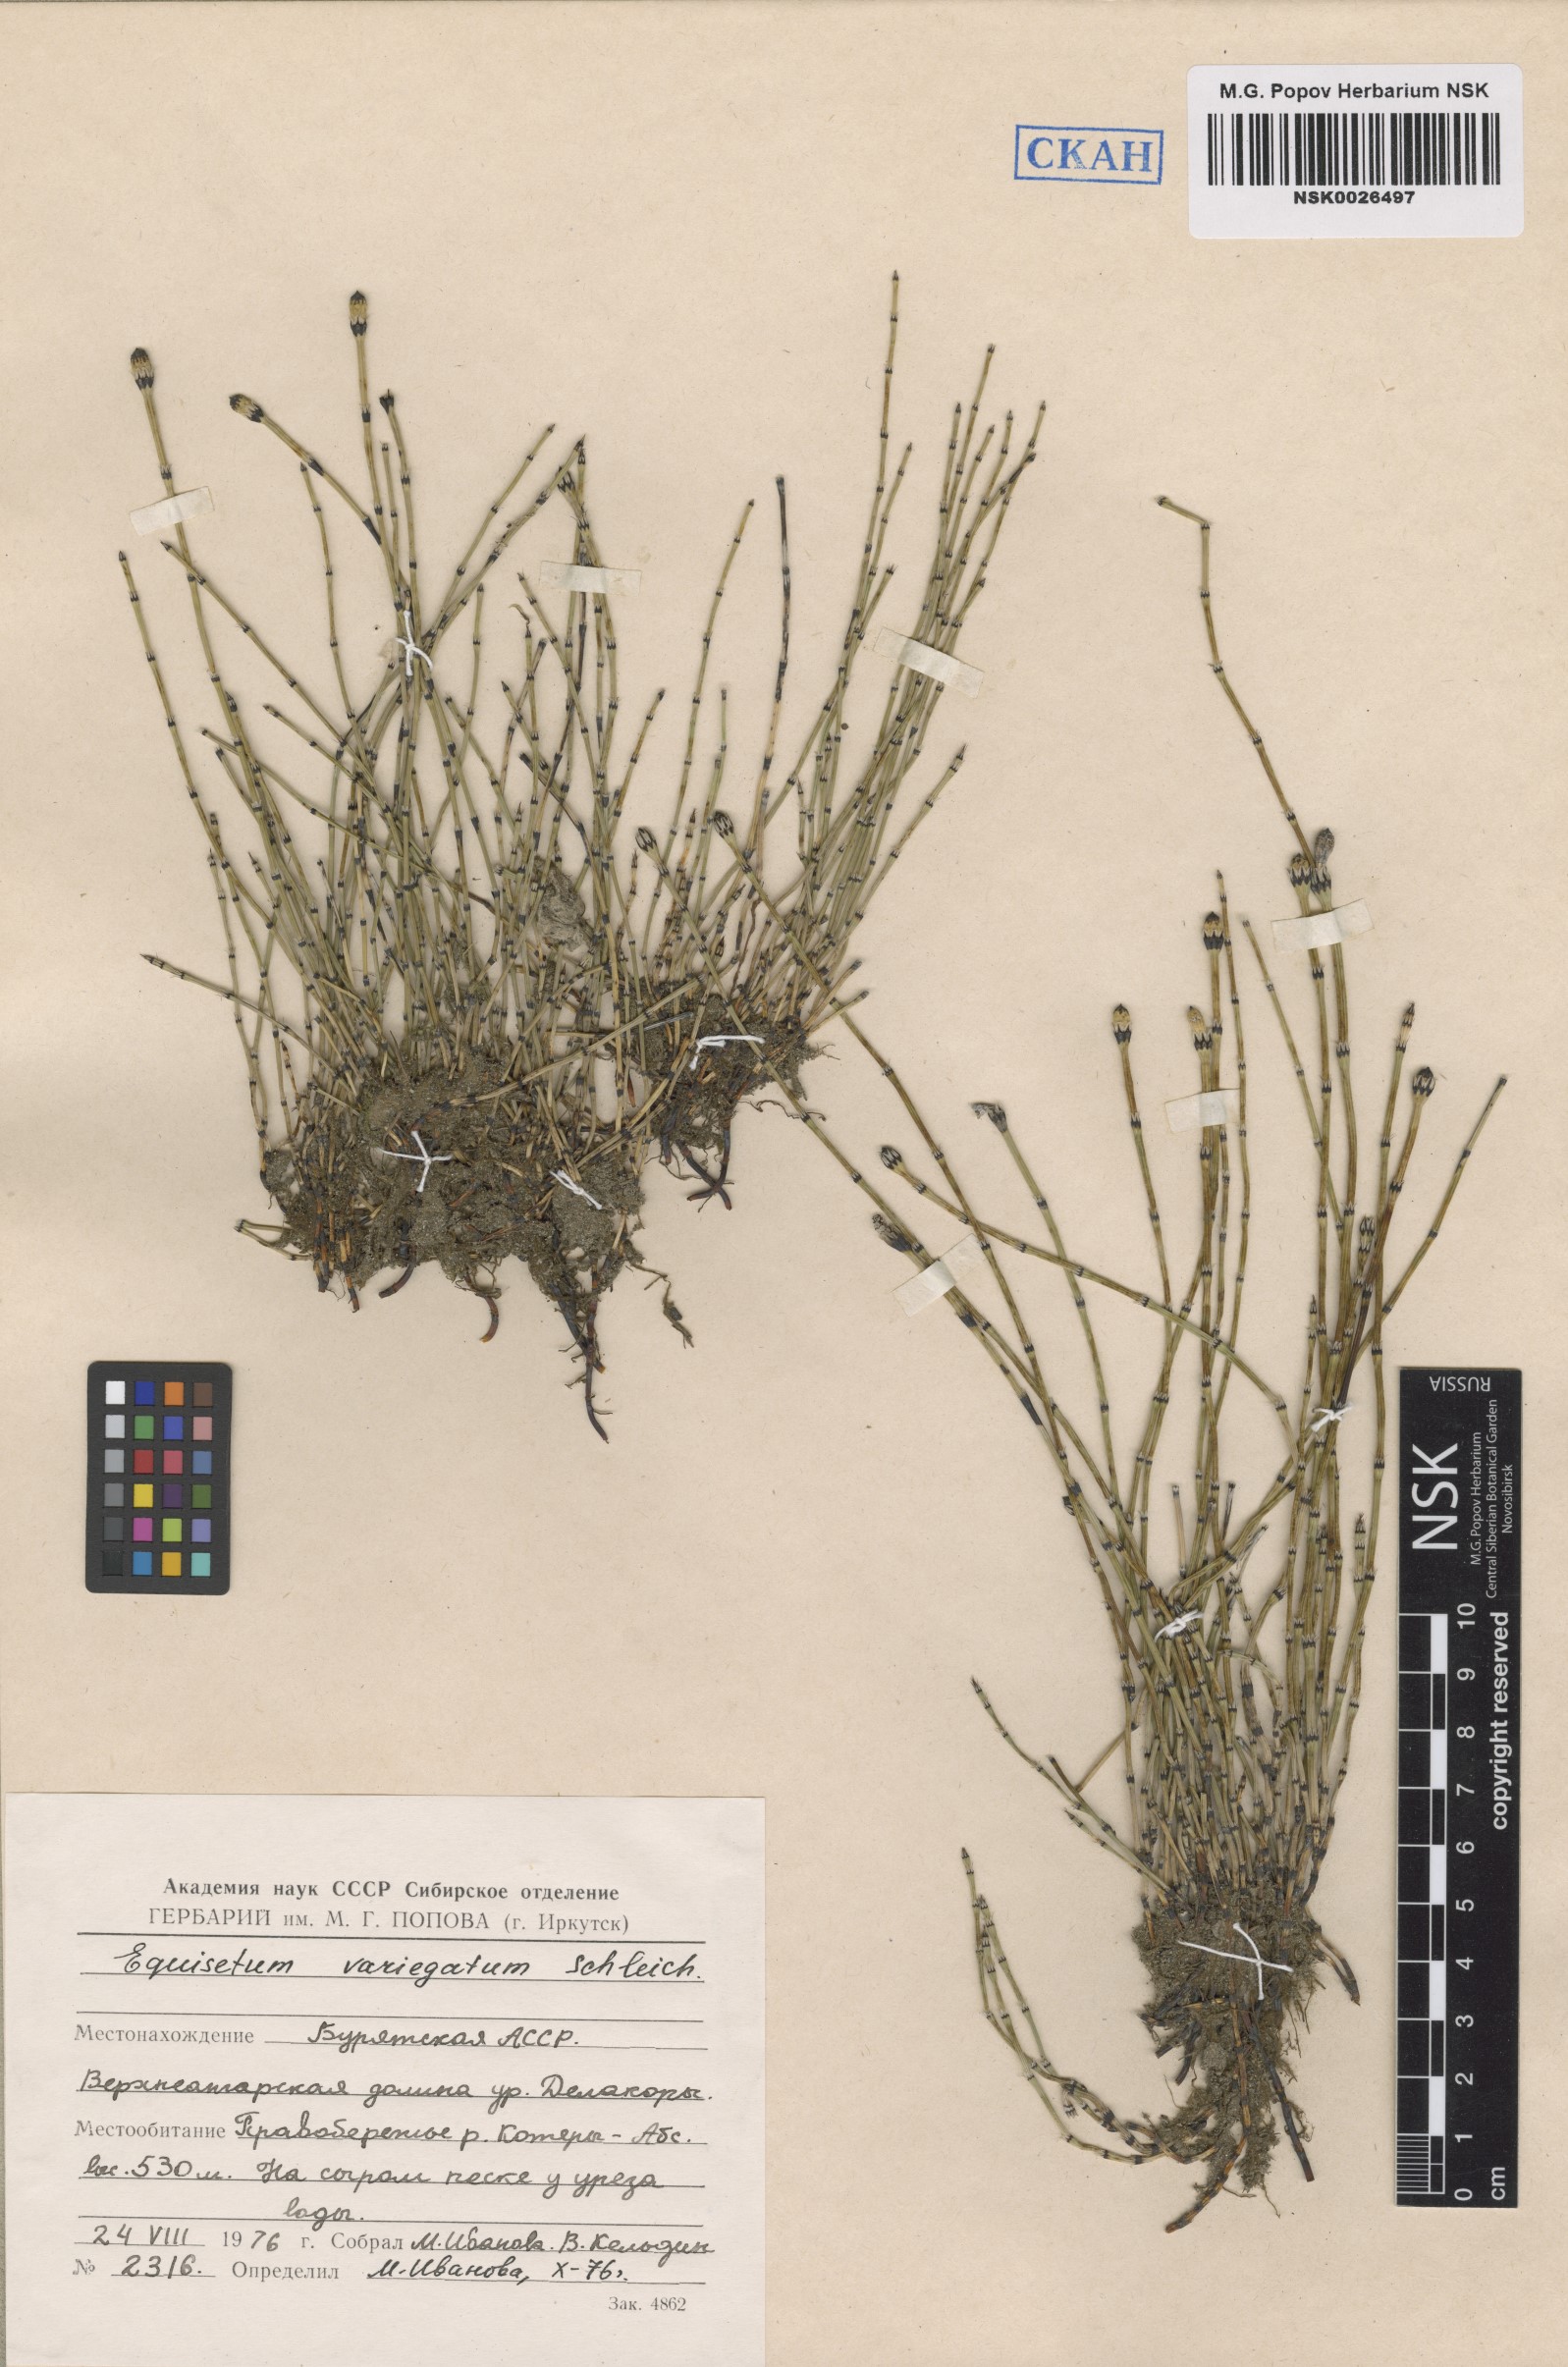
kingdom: Plantae
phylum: Tracheophyta
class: Polypodiopsida
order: Equisetales
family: Equisetaceae
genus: Equisetum
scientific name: Equisetum variegatum
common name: Variegated horsetail
